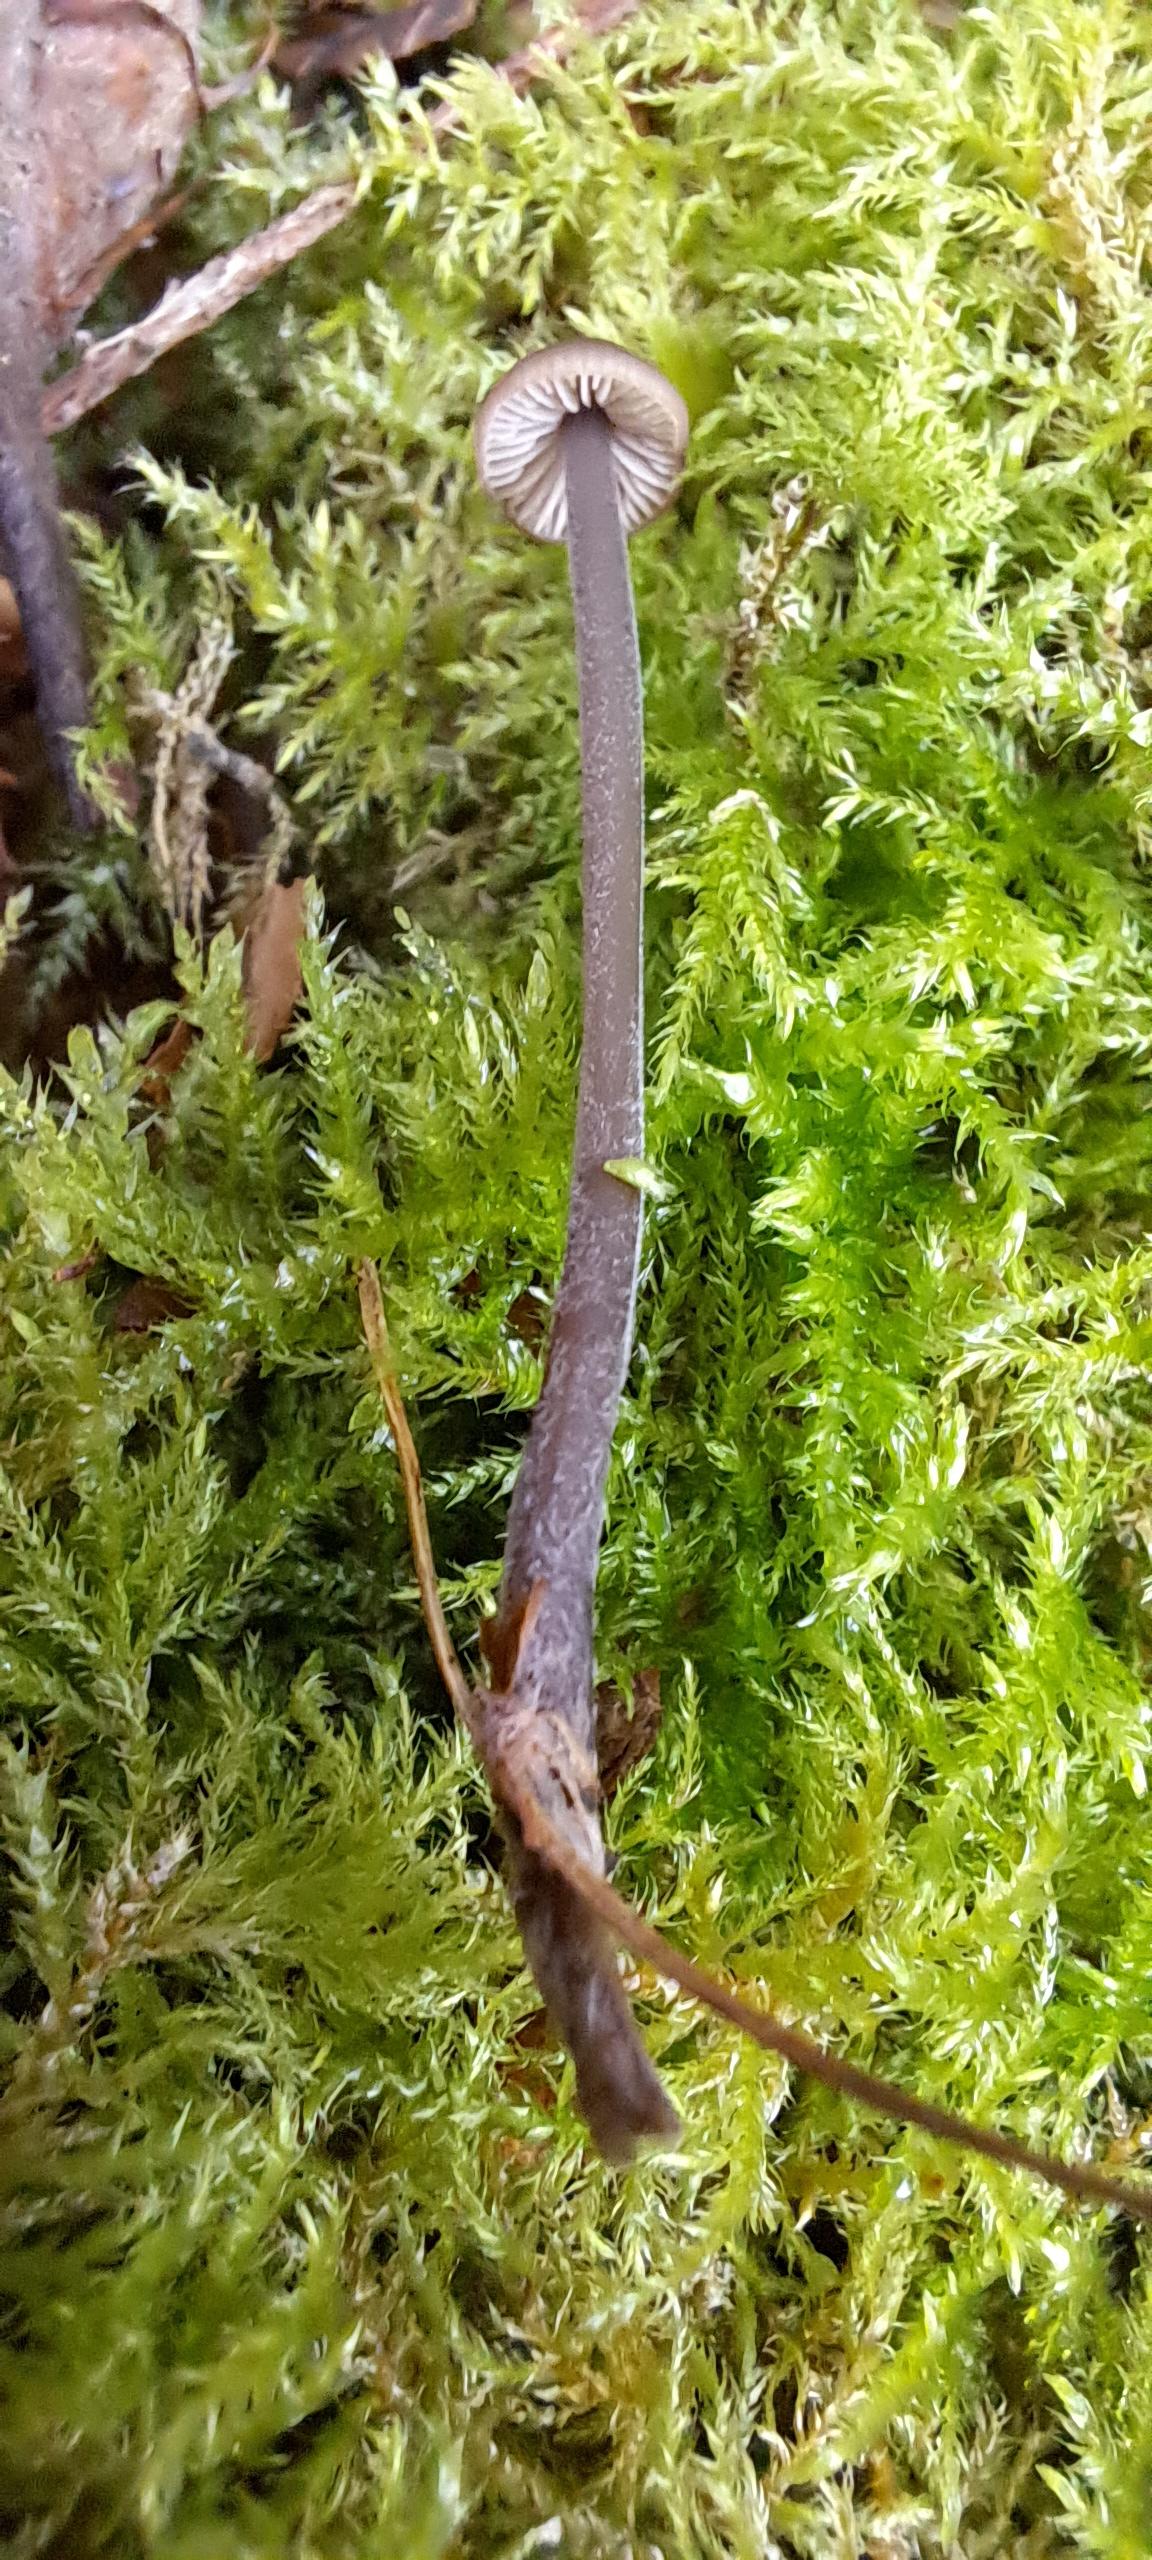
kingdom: Fungi
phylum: Basidiomycota
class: Agaricomycetes
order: Agaricales
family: Omphalotaceae
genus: Mycetinis
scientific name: Mycetinis alliaceus
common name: stor løghat
